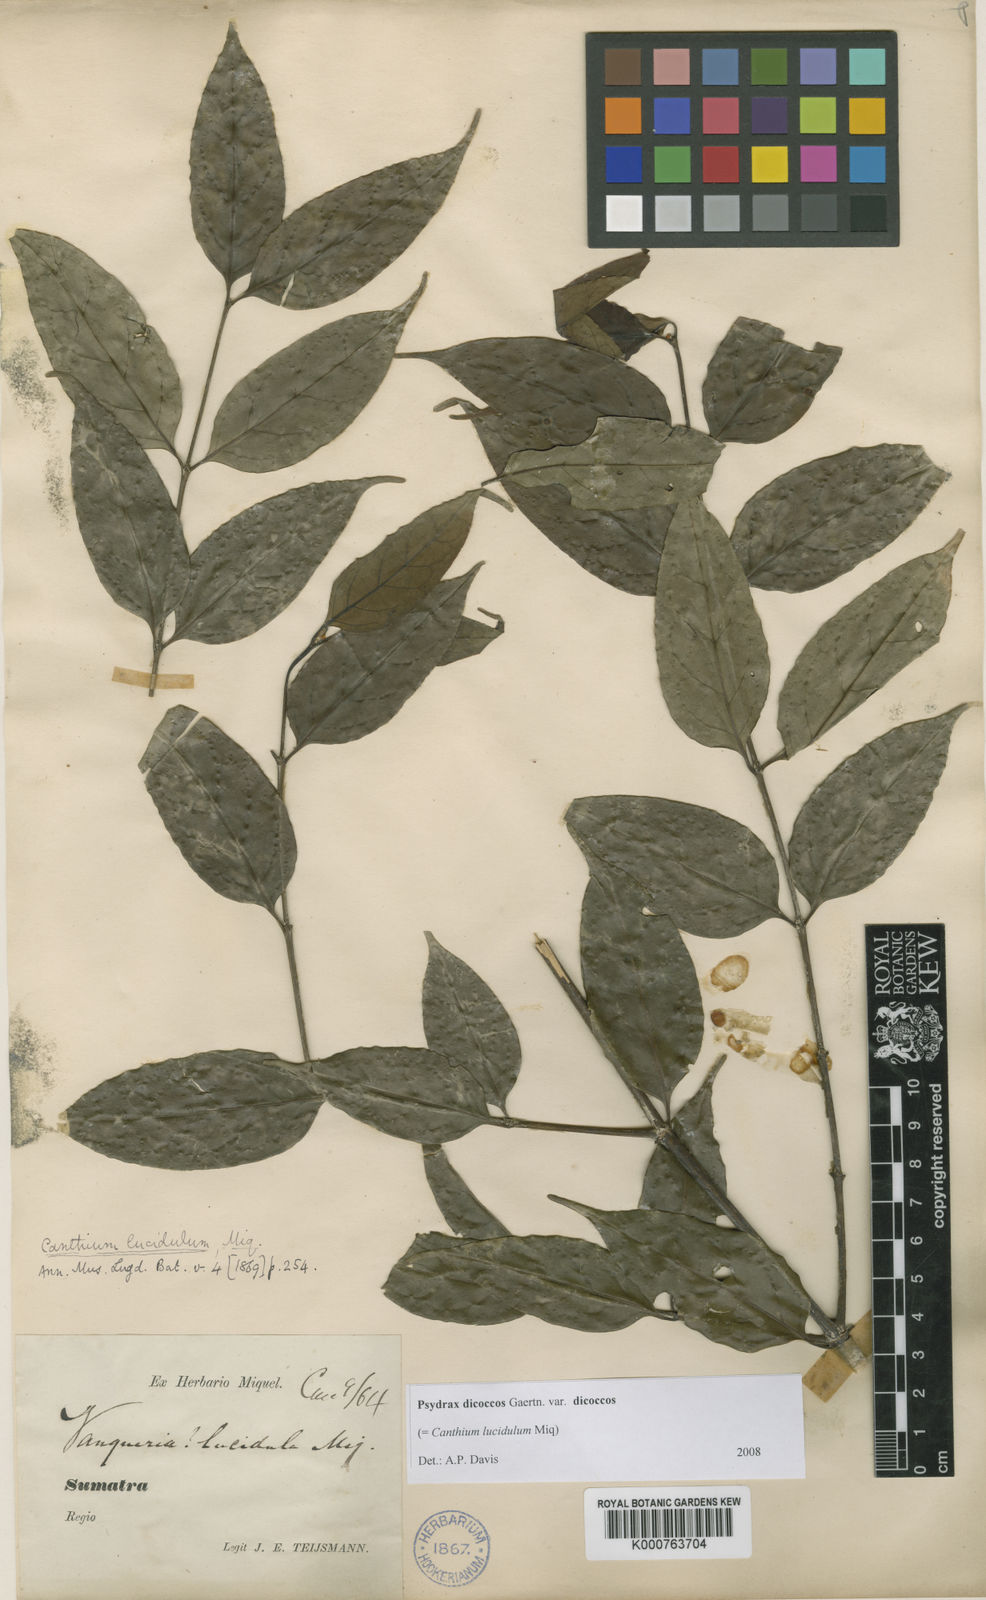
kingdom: Plantae
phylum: Tracheophyta
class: Magnoliopsida
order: Gentianales
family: Rubiaceae
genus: Psydrax
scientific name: Psydrax dicoccos
